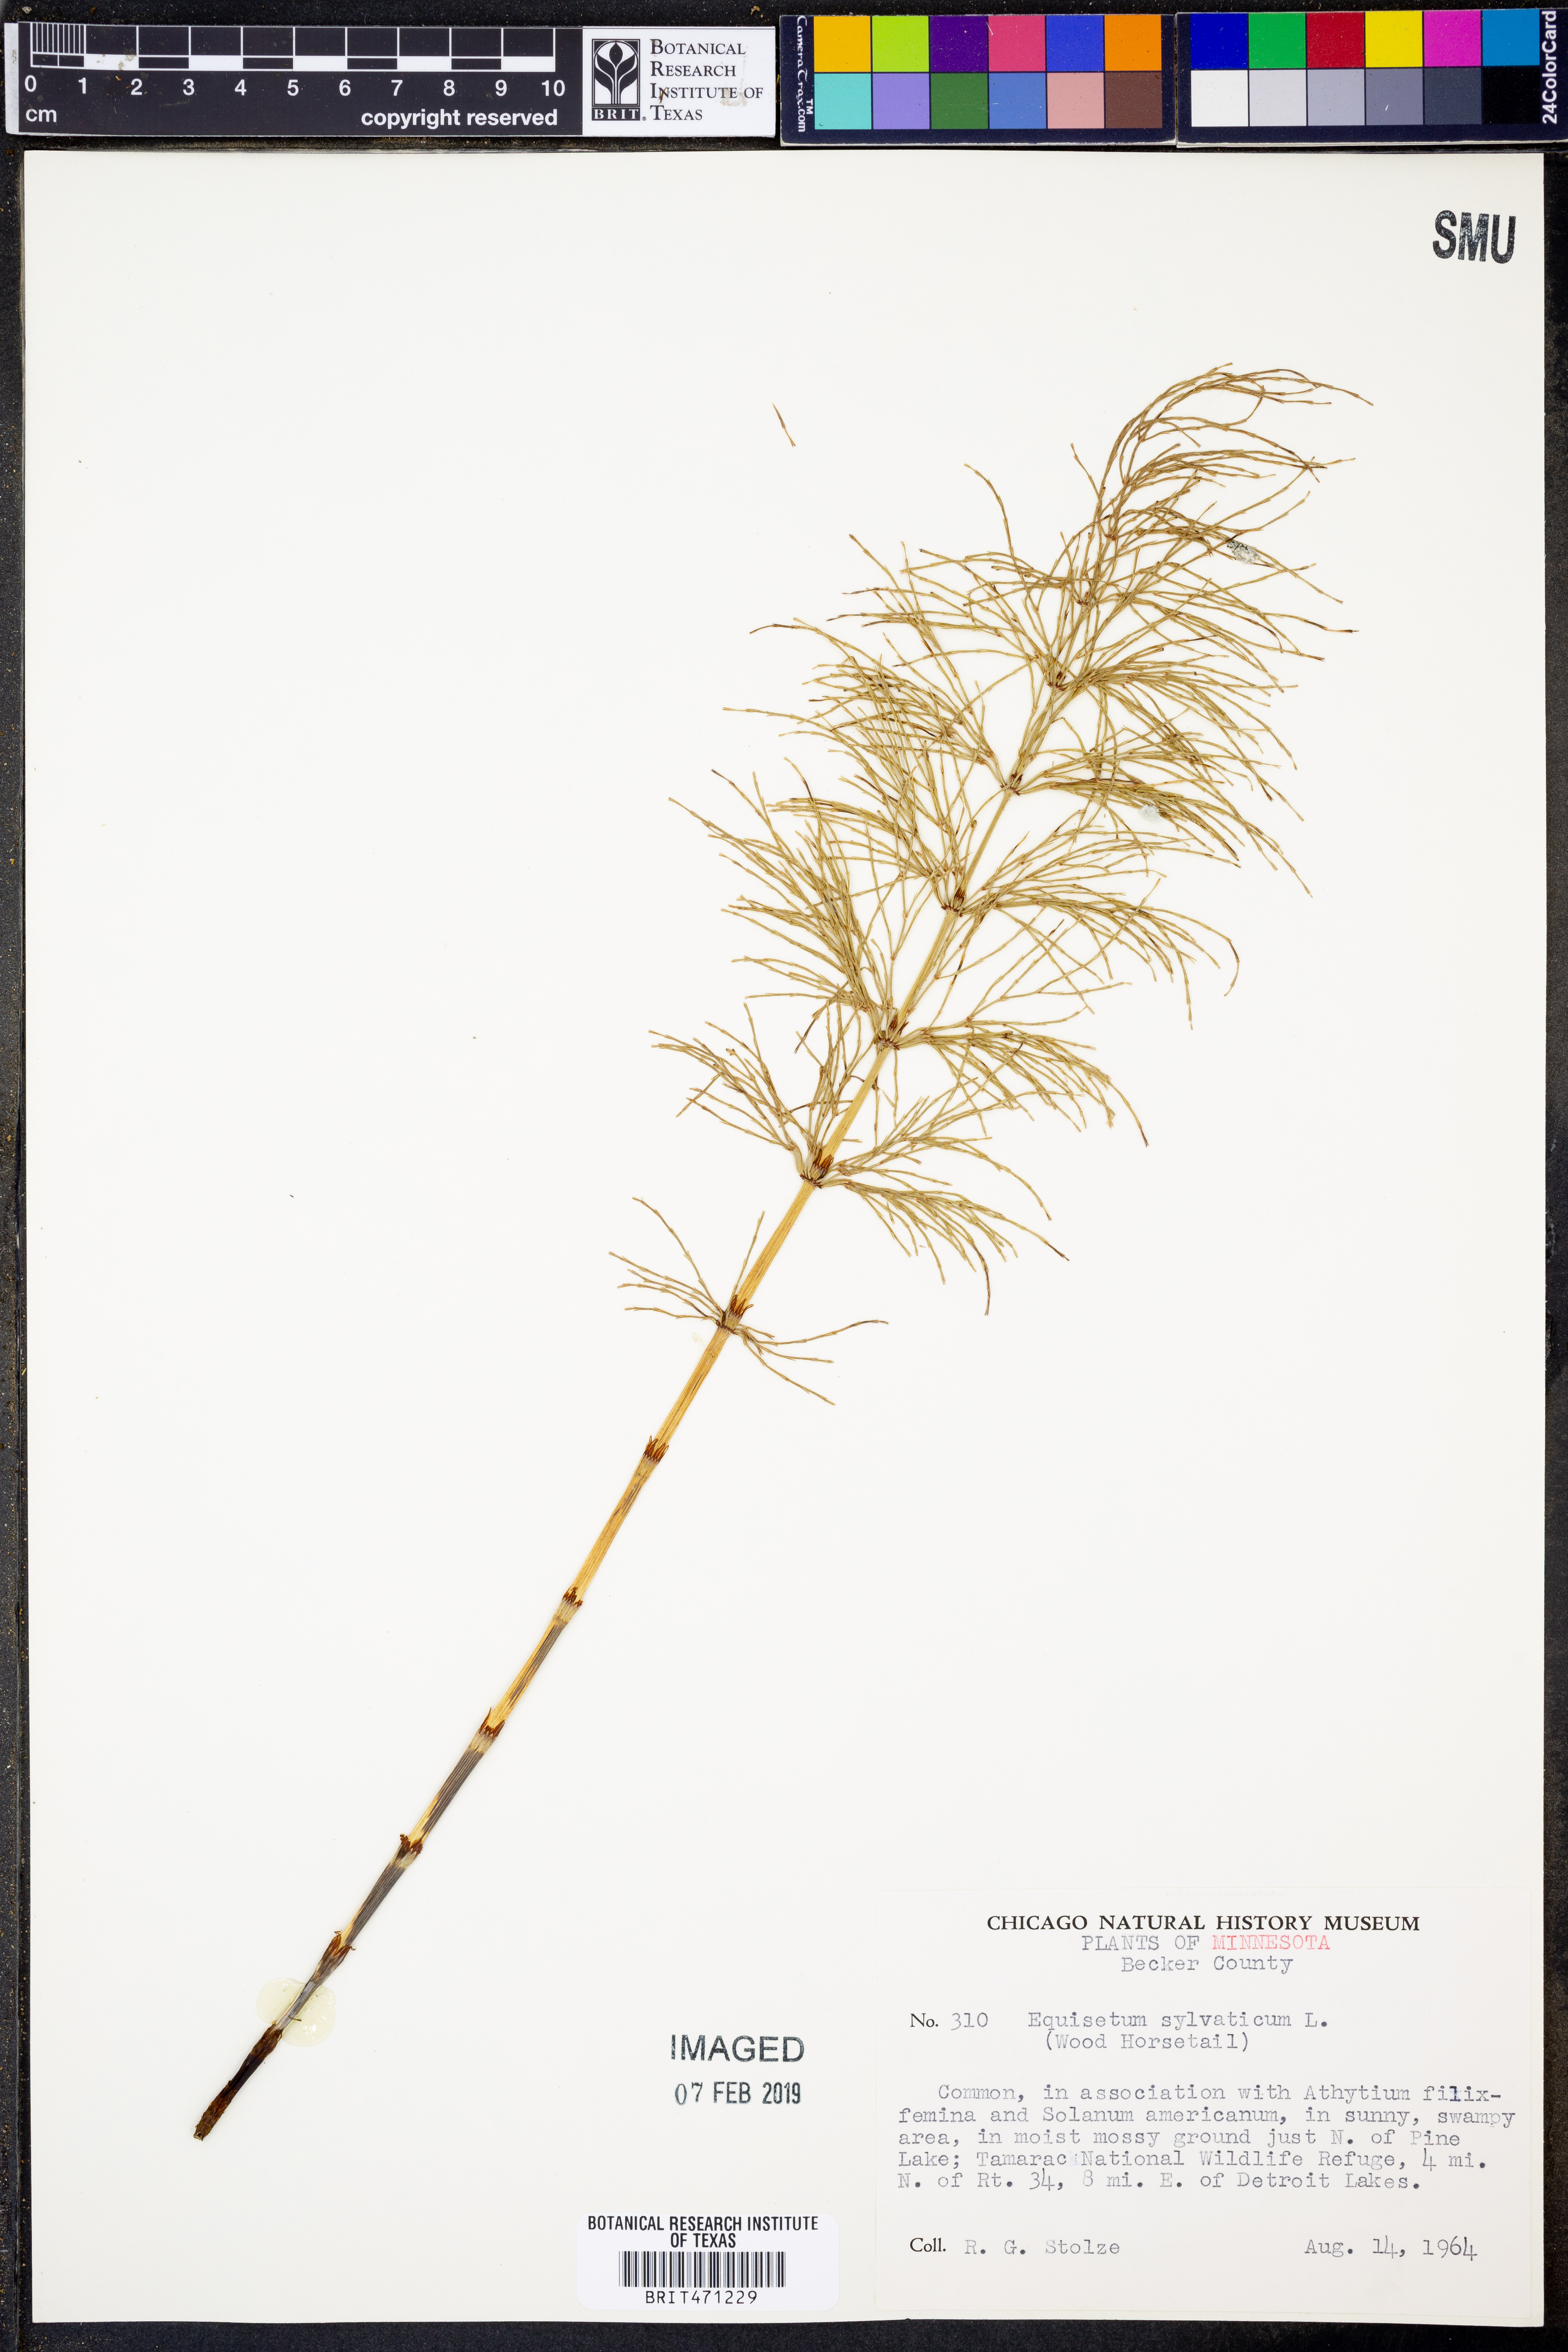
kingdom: Plantae
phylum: Tracheophyta
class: Polypodiopsida
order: Equisetales
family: Equisetaceae
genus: Equisetum
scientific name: Equisetum sylvaticum
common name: Wood horsetail
